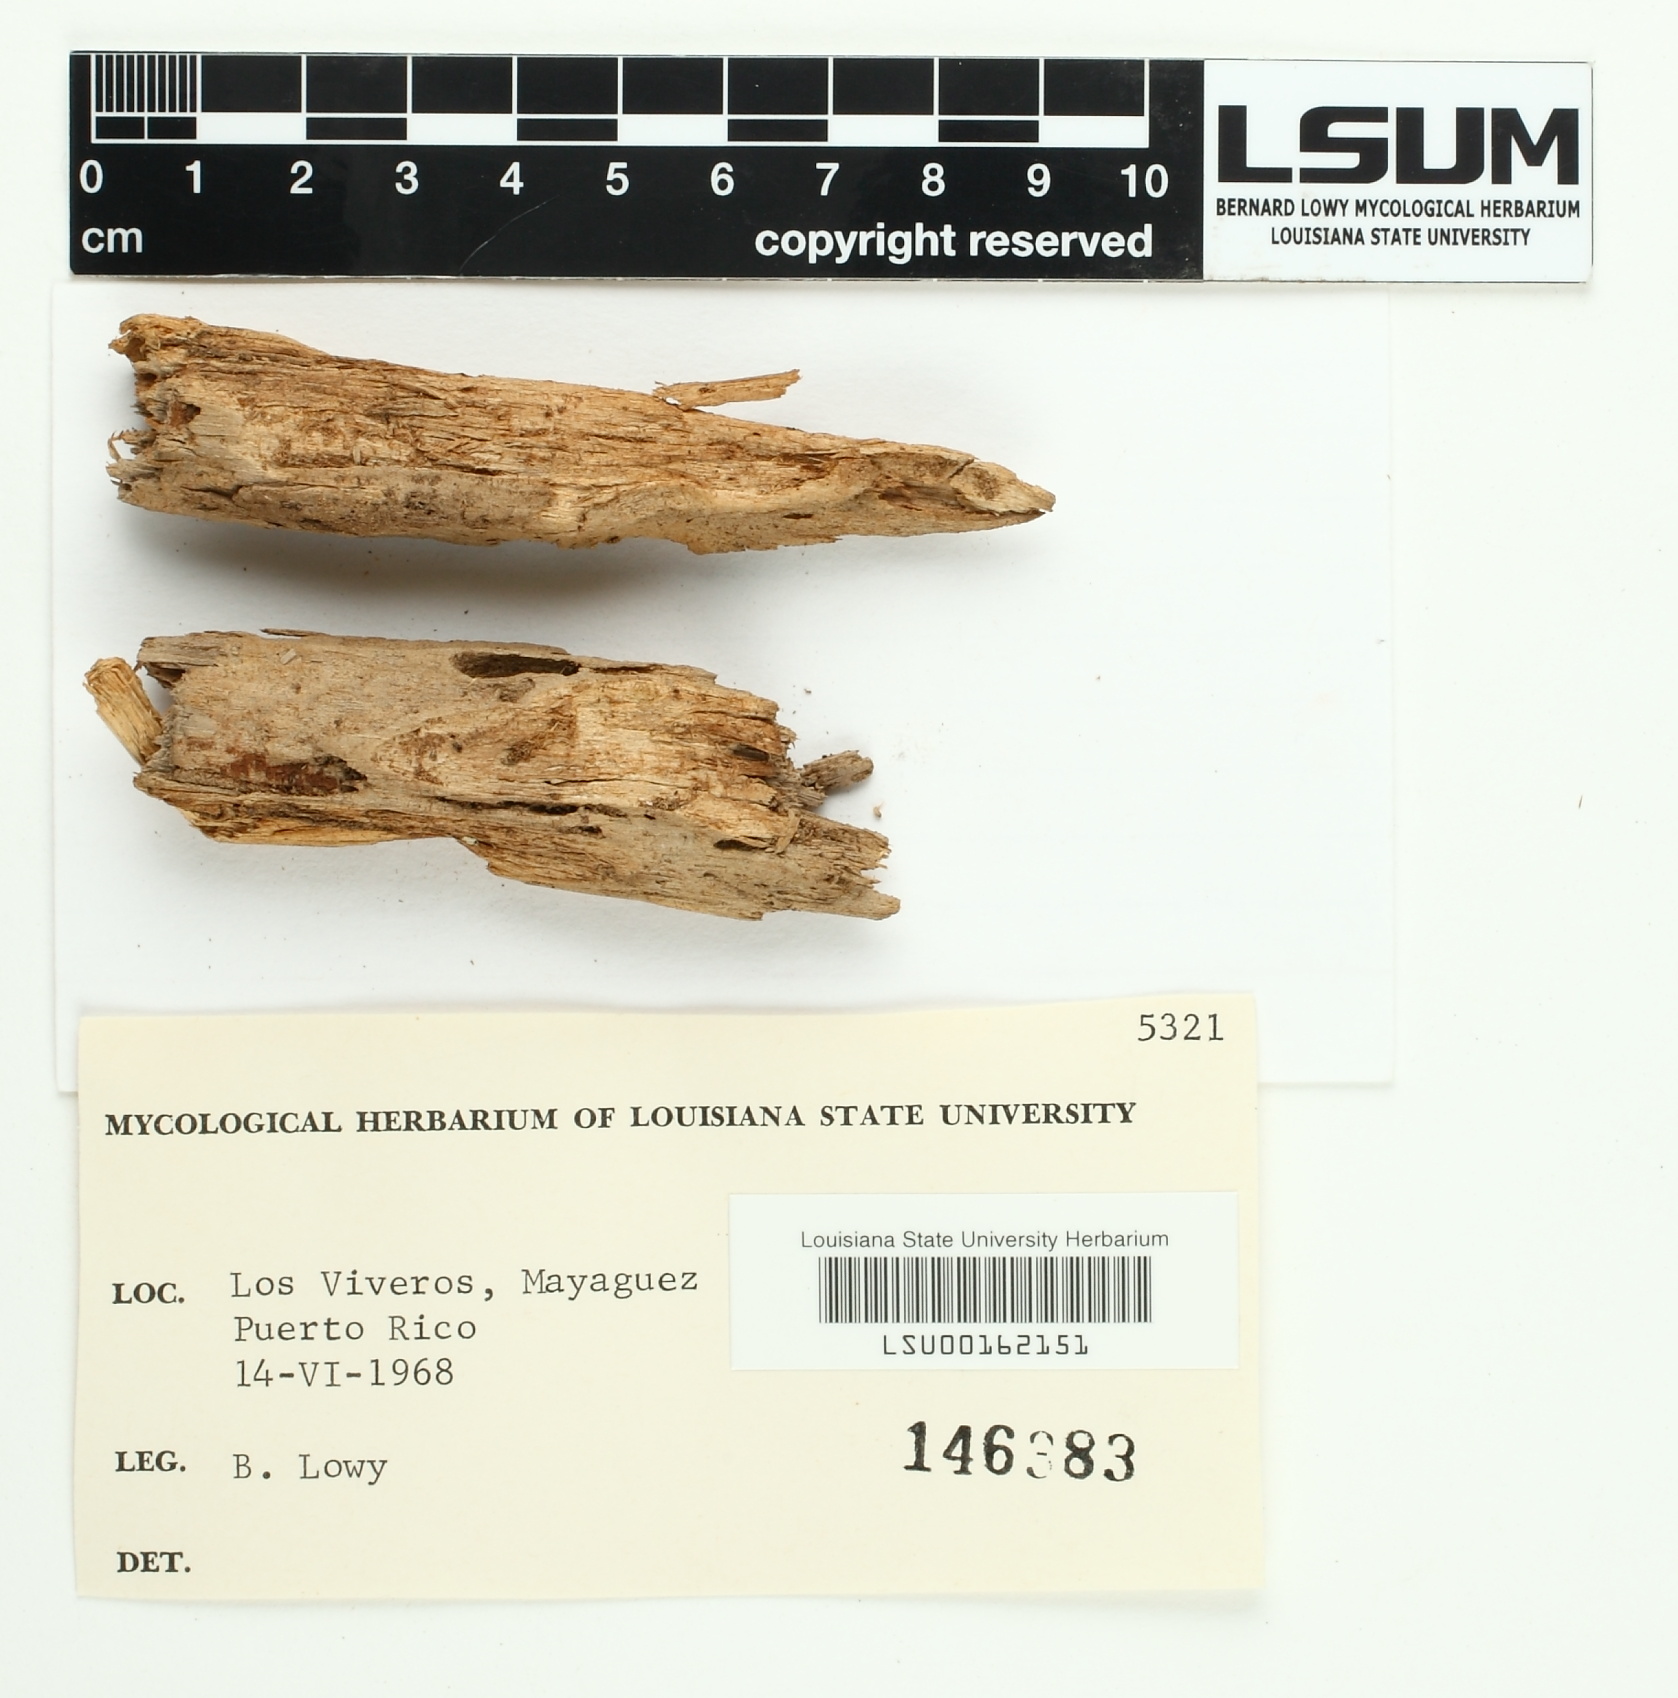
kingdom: Fungi
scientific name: Fungi
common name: Fungi
